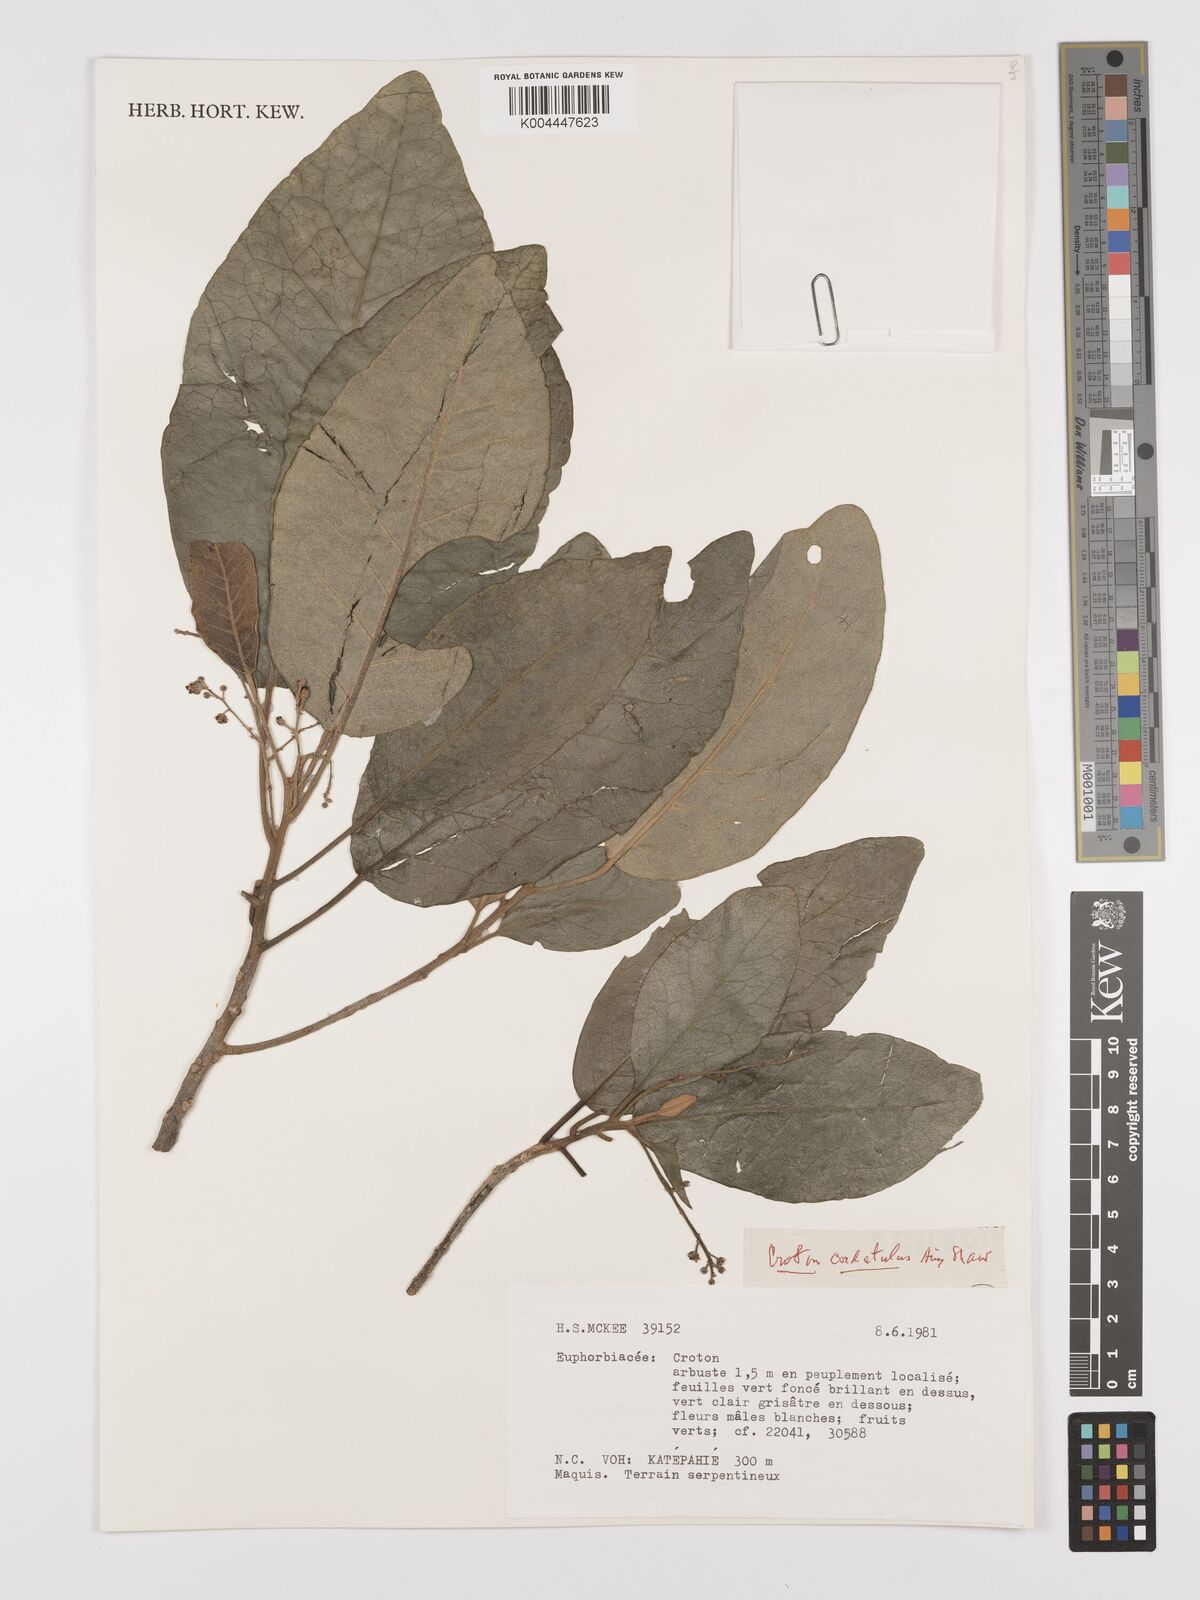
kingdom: Plantae
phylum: Tracheophyta
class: Magnoliopsida
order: Malpighiales
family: Euphorbiaceae
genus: Croton
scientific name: Croton cordatulus
